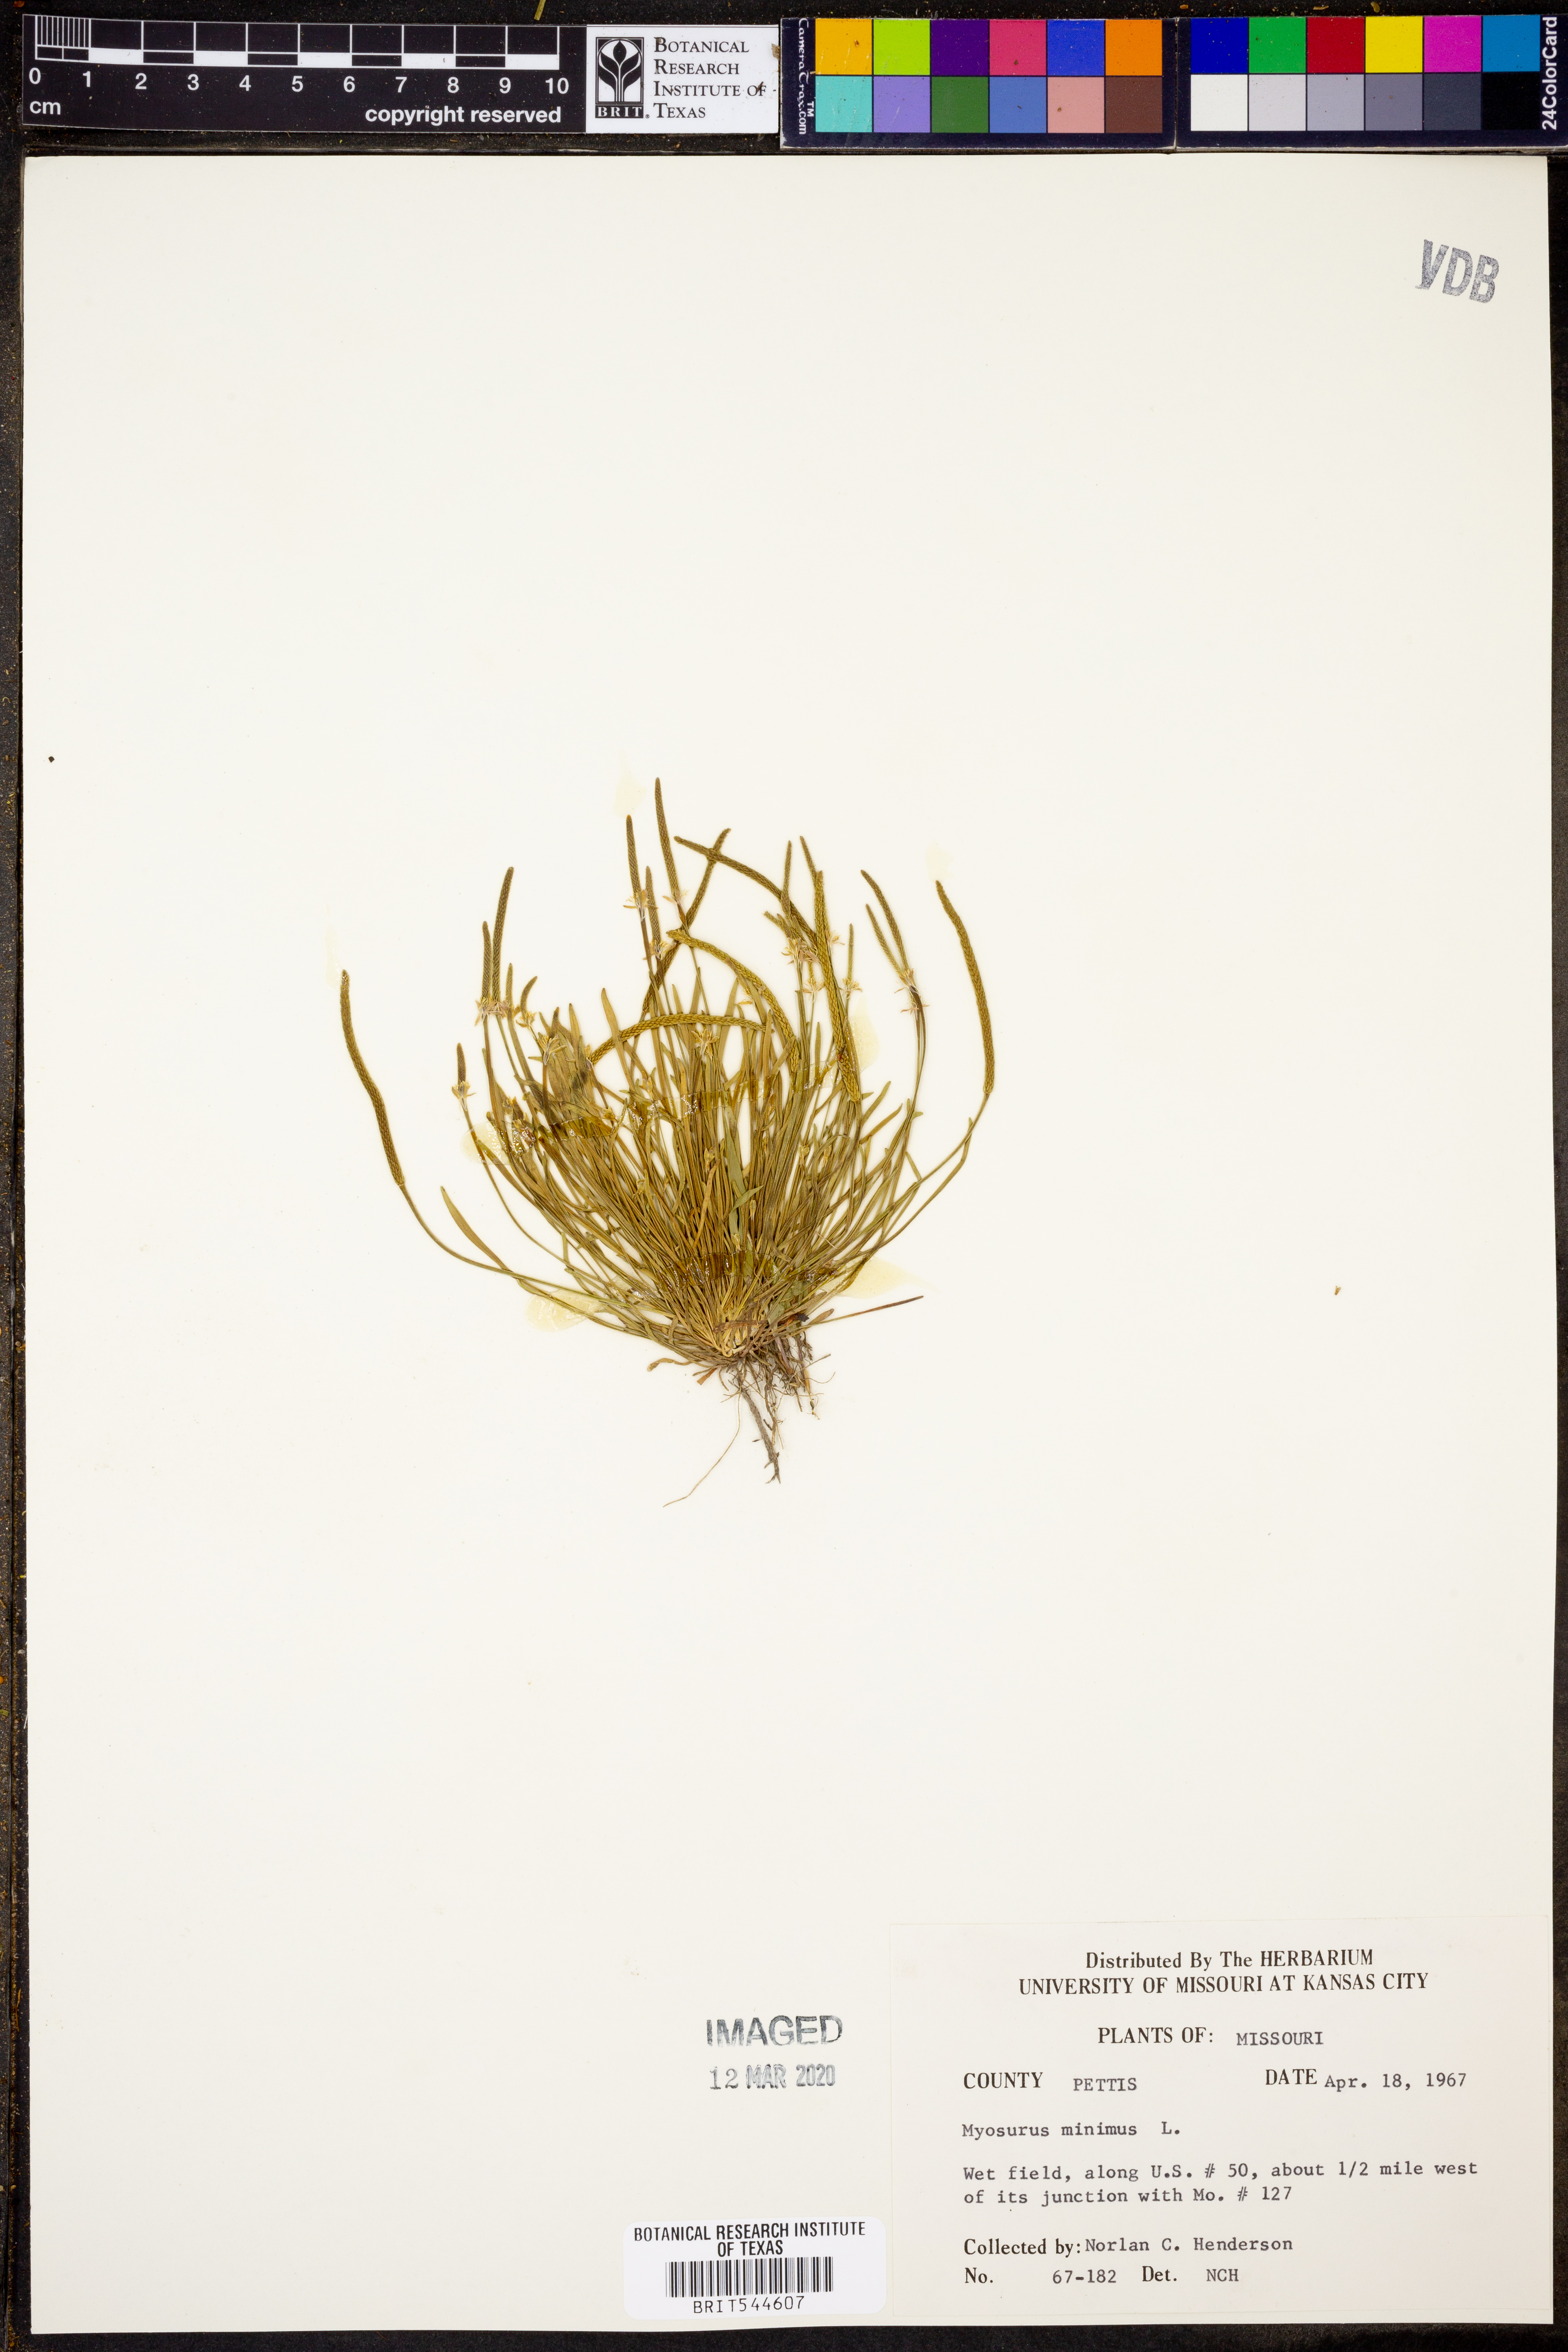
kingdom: Plantae
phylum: Tracheophyta
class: Magnoliopsida
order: Ranunculales
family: Ranunculaceae
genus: Myosurus
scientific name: Myosurus minimus
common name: Mousetail
